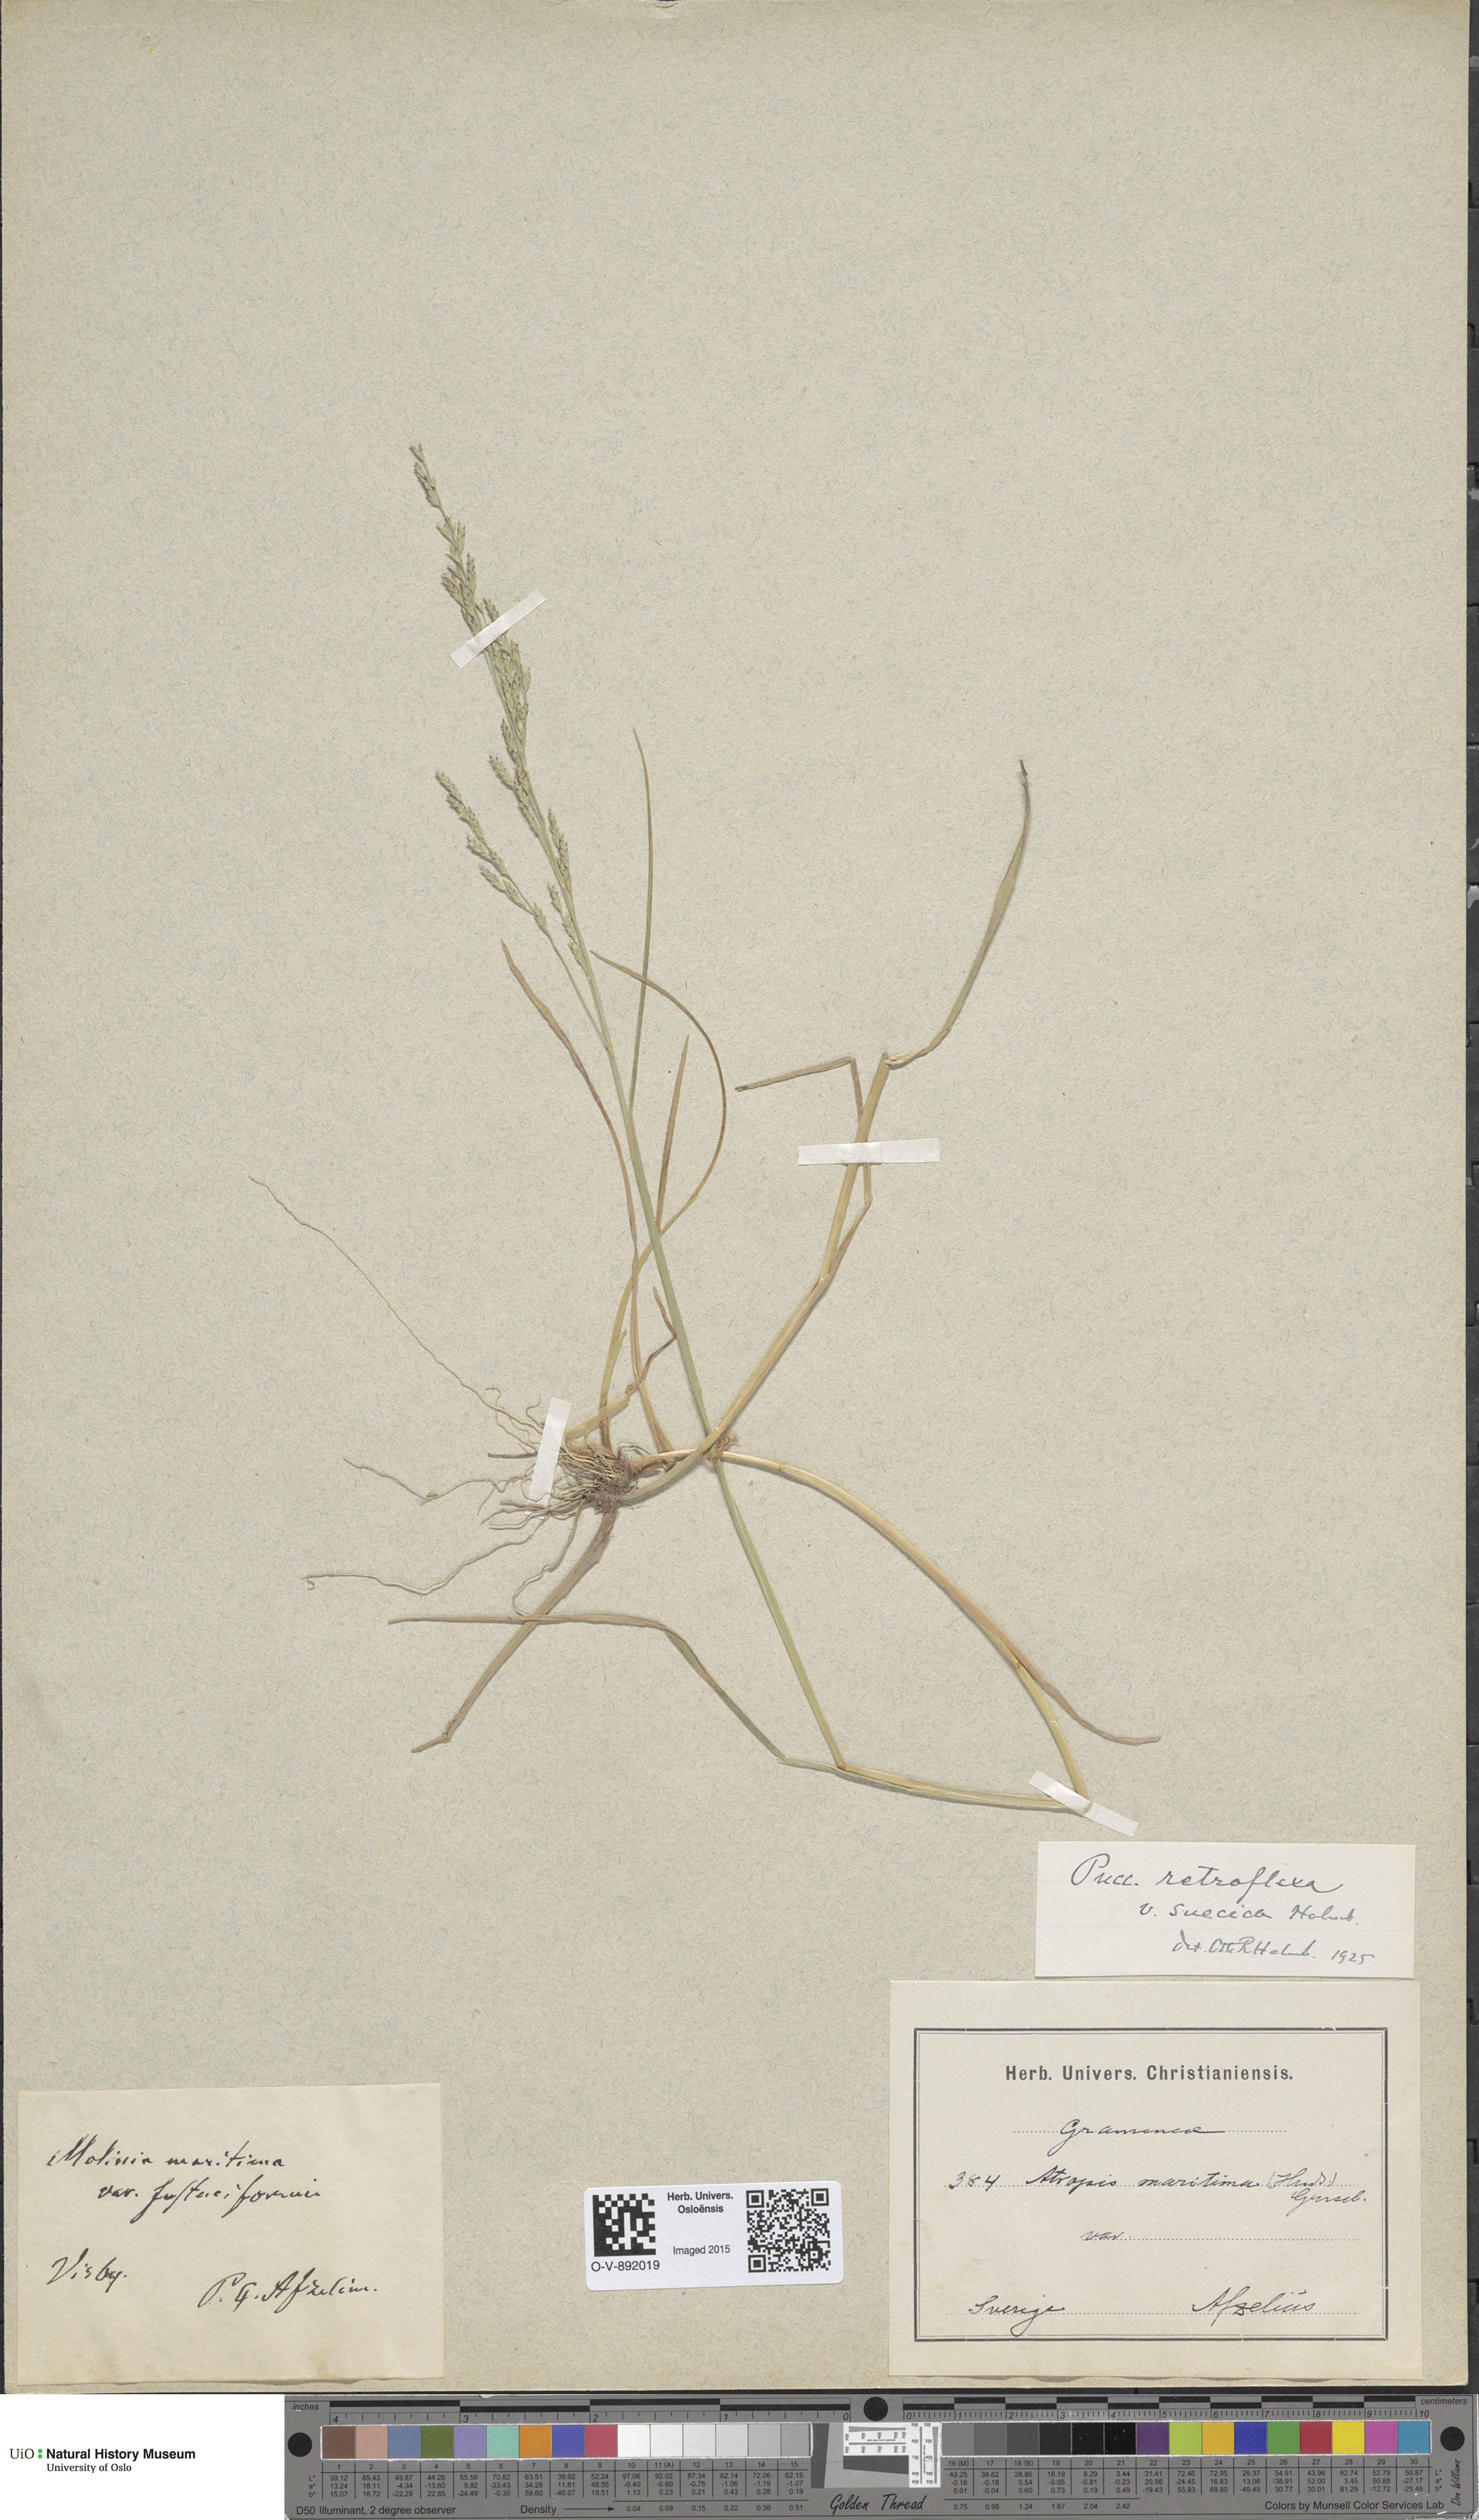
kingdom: Plantae
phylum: Tracheophyta
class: Liliopsida
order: Poales
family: Poaceae
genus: Puccinellia
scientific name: Puccinellia distans
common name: Weeping alkaligrass
